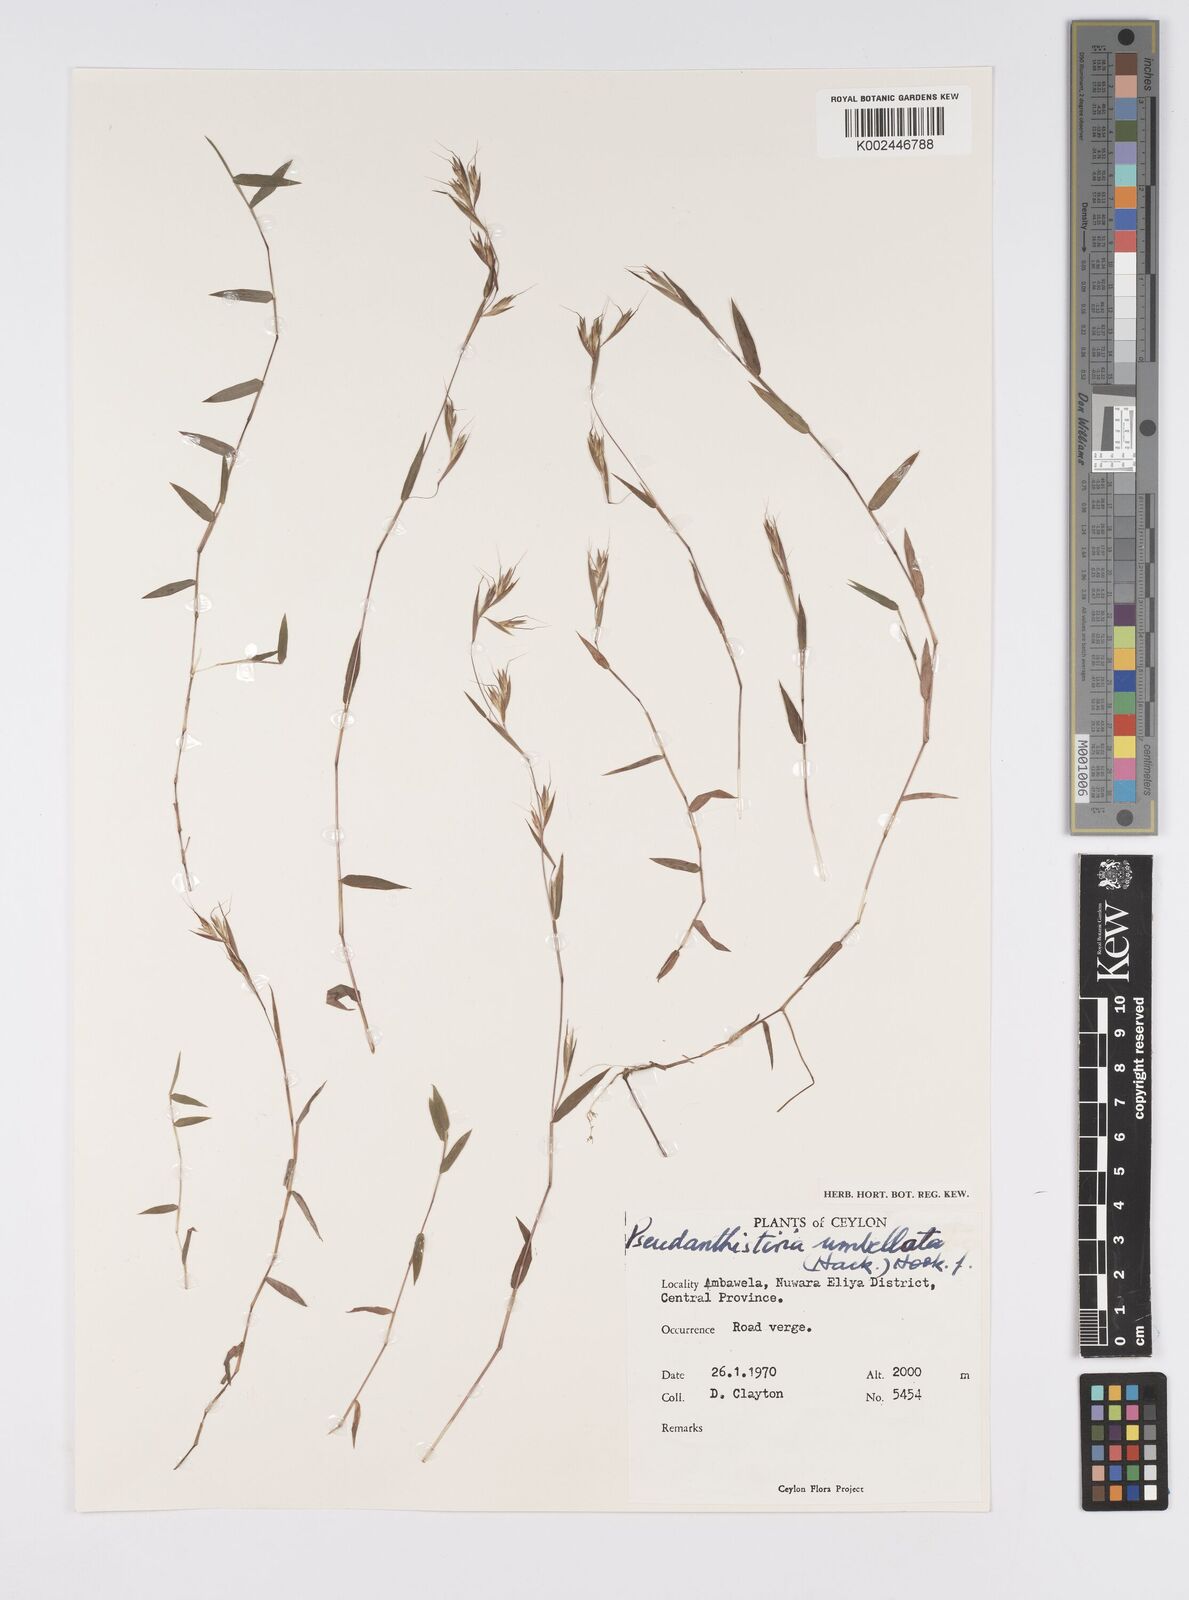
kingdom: Plantae
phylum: Tracheophyta
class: Liliopsida
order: Poales
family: Poaceae
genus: Pseudanthistiria
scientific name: Pseudanthistiria umbellata
